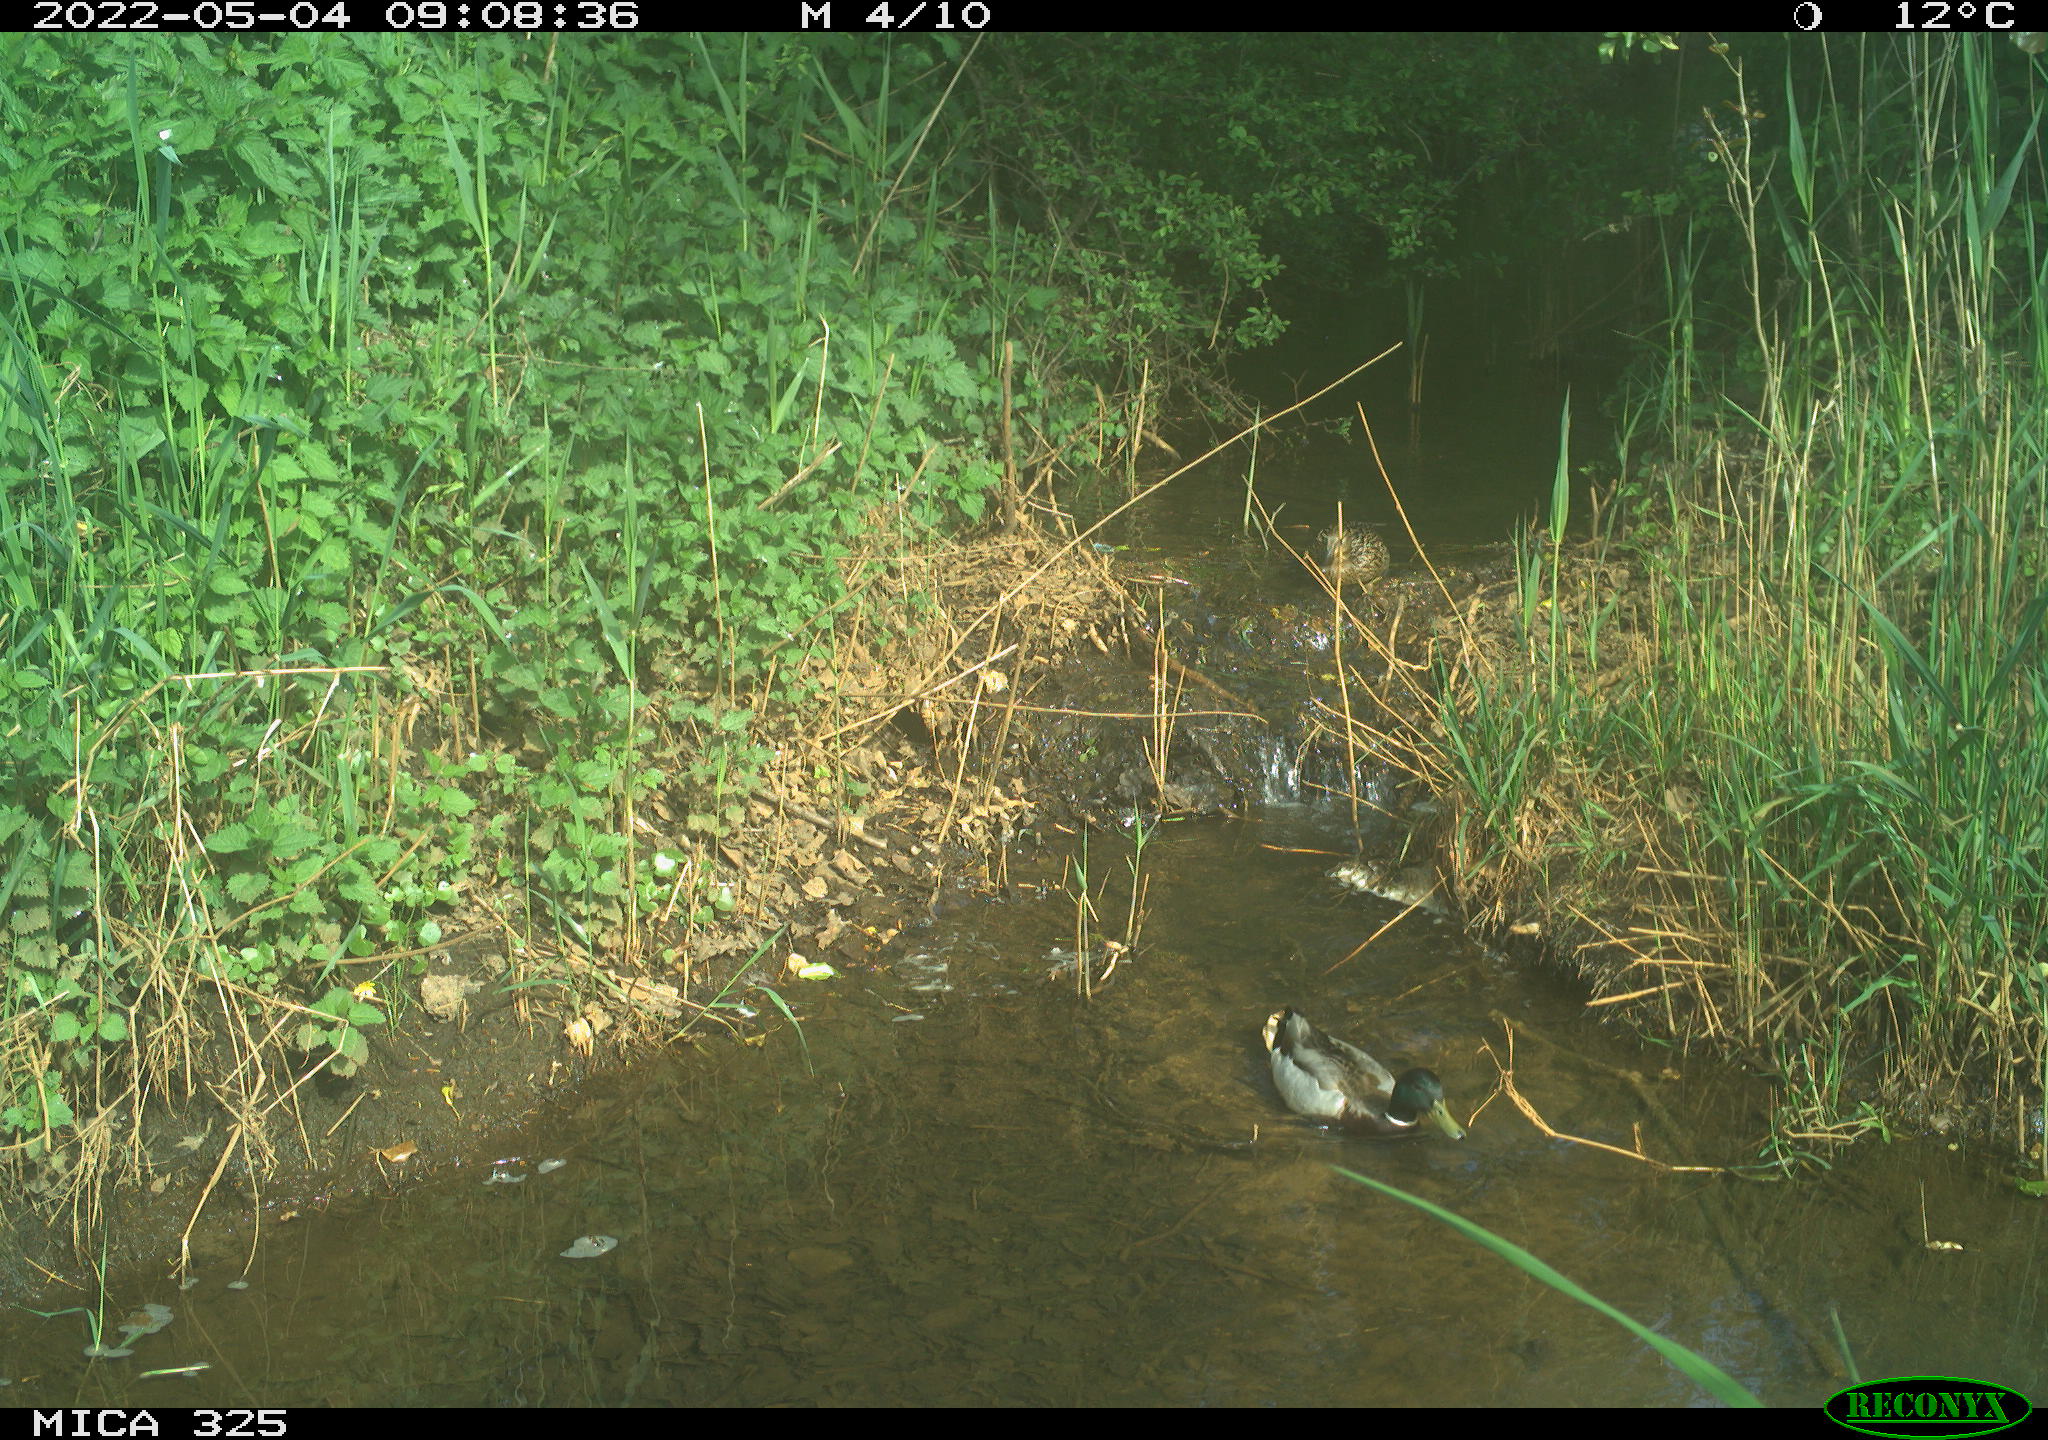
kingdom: Animalia
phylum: Chordata
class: Aves
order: Anseriformes
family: Anatidae
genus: Anas
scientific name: Anas platyrhynchos
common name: Mallard
